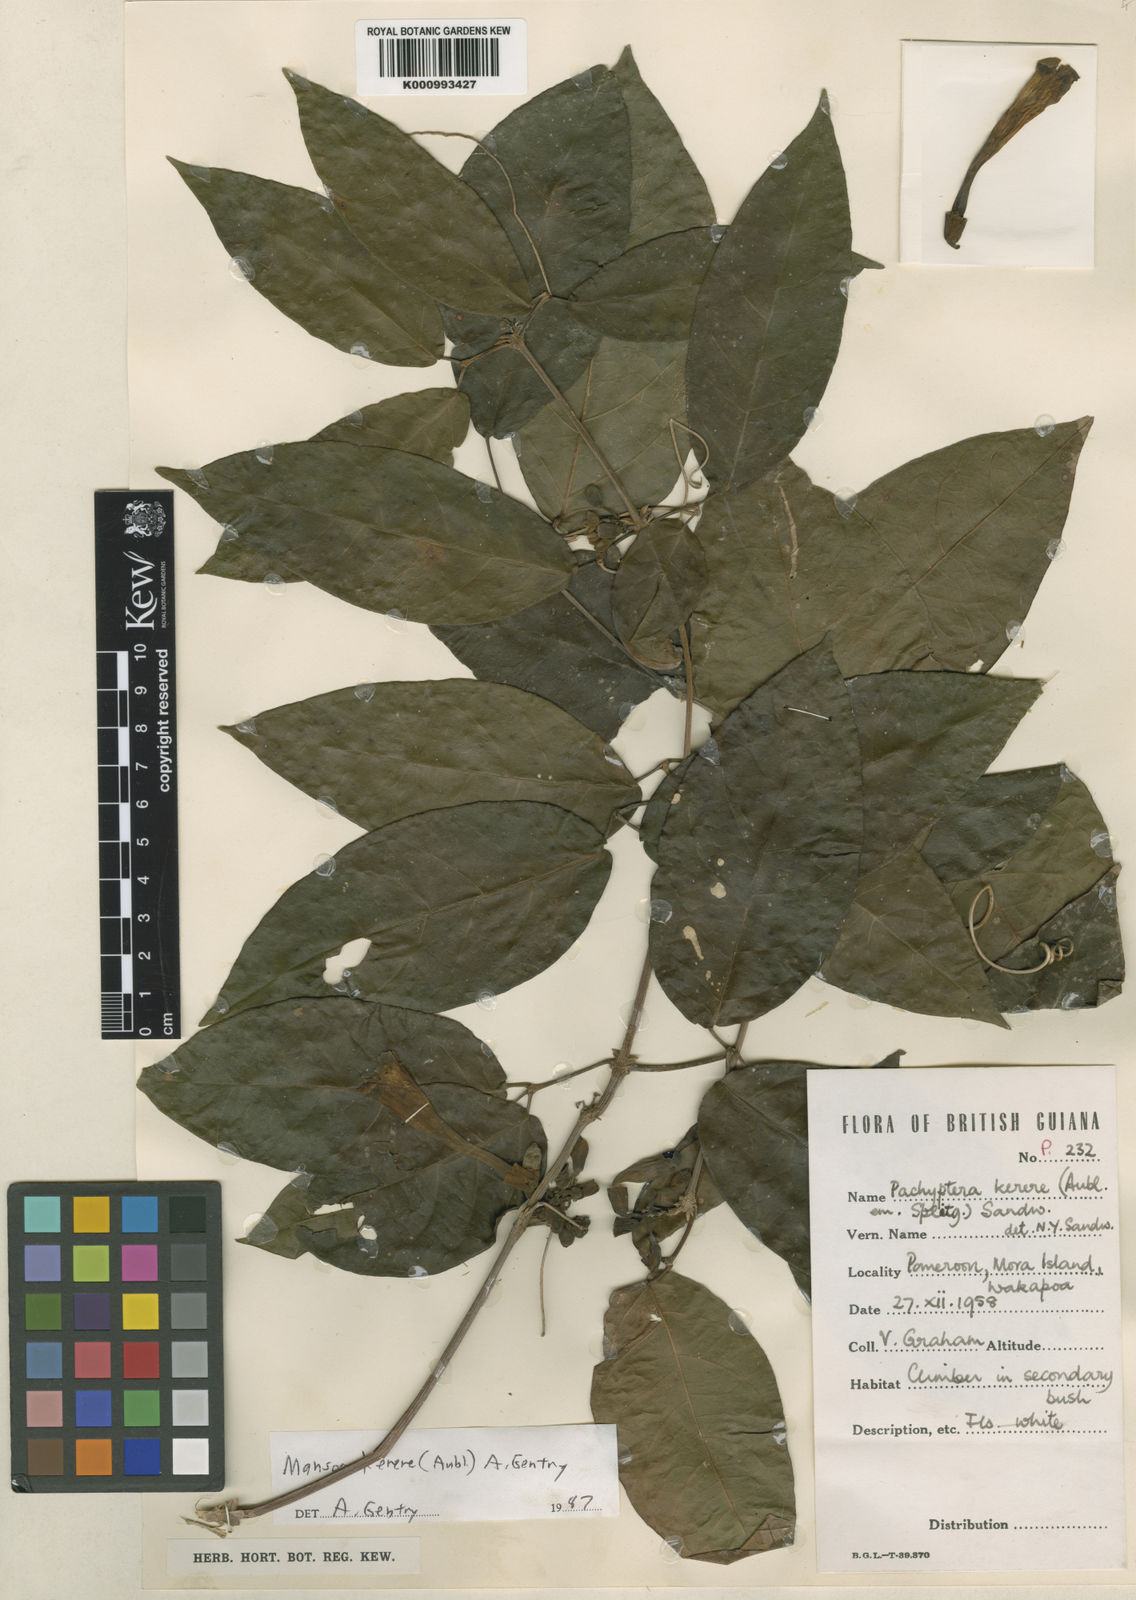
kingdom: Plantae
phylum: Tracheophyta
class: Magnoliopsida
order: Lamiales
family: Bignoniaceae
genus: Pachyptera
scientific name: Pachyptera kerere
